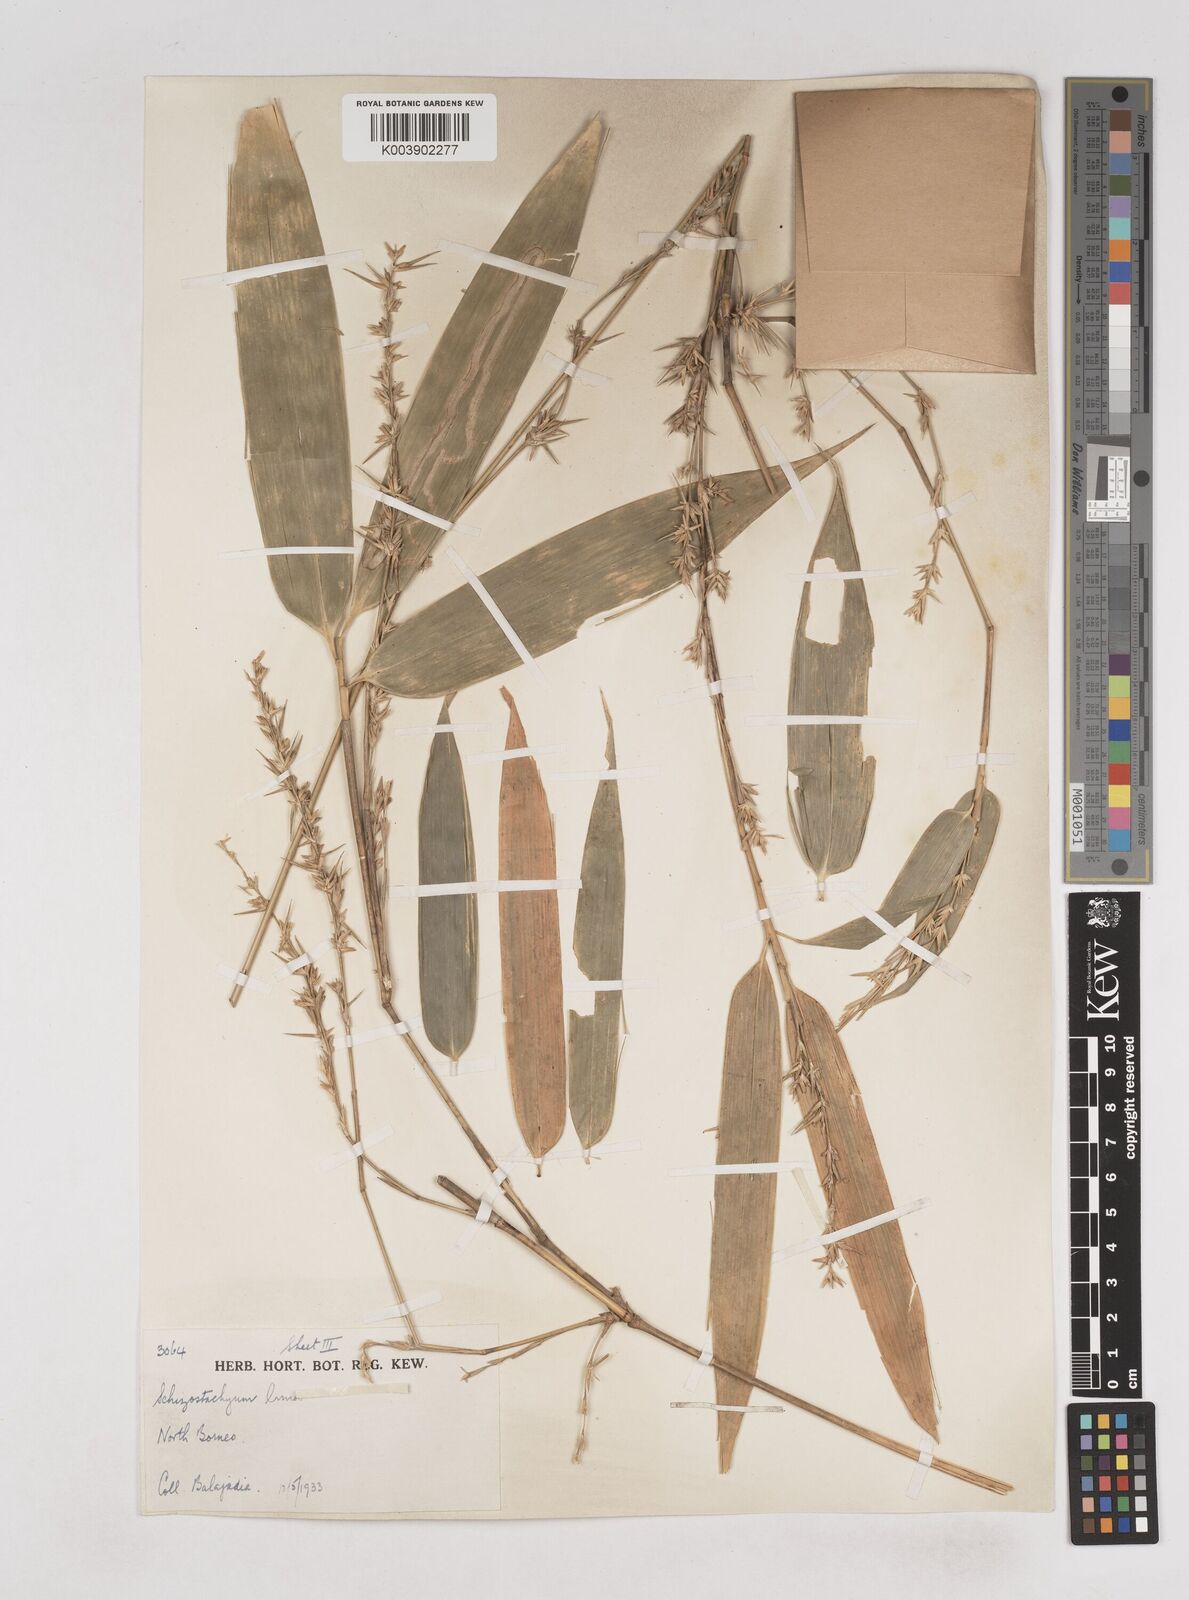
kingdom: Plantae
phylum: Tracheophyta
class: Liliopsida
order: Poales
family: Poaceae
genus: Schizostachyum
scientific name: Schizostachyum lima
